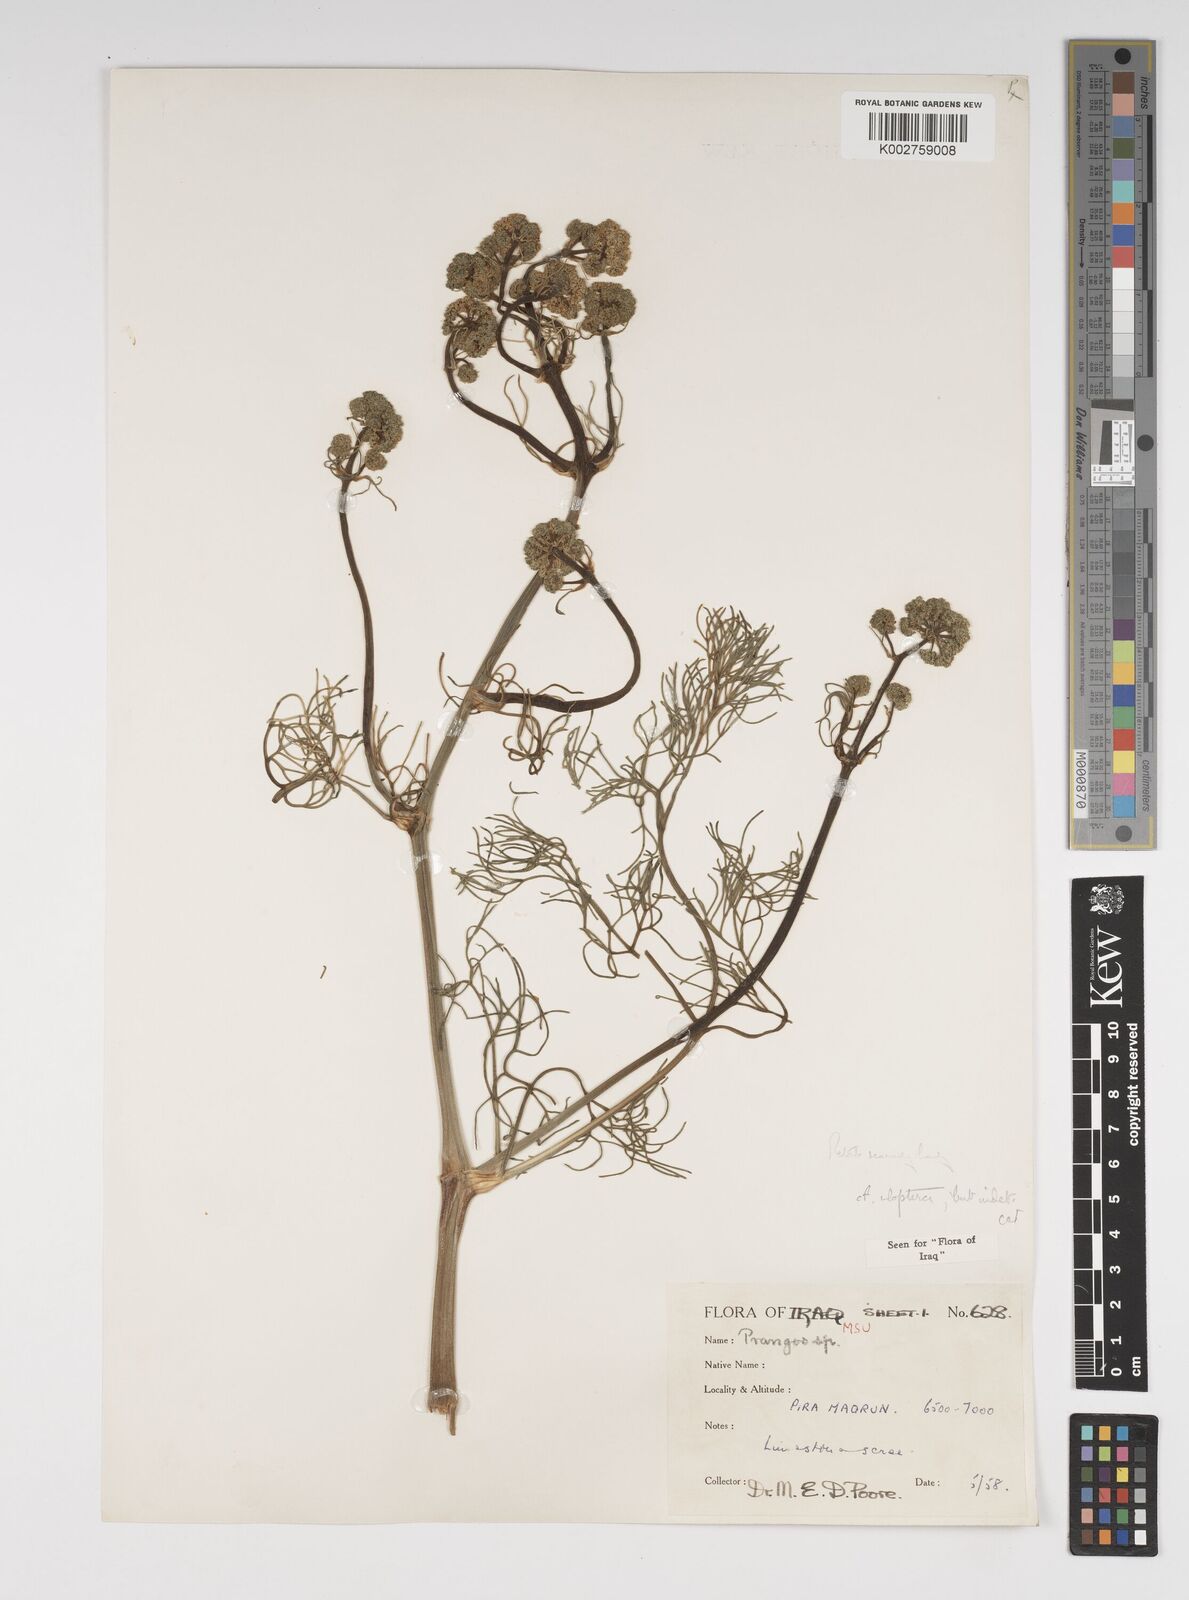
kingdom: Plantae
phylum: Tracheophyta
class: Magnoliopsida
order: Apiales
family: Apiaceae
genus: Prangos
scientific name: Prangos uloptera
